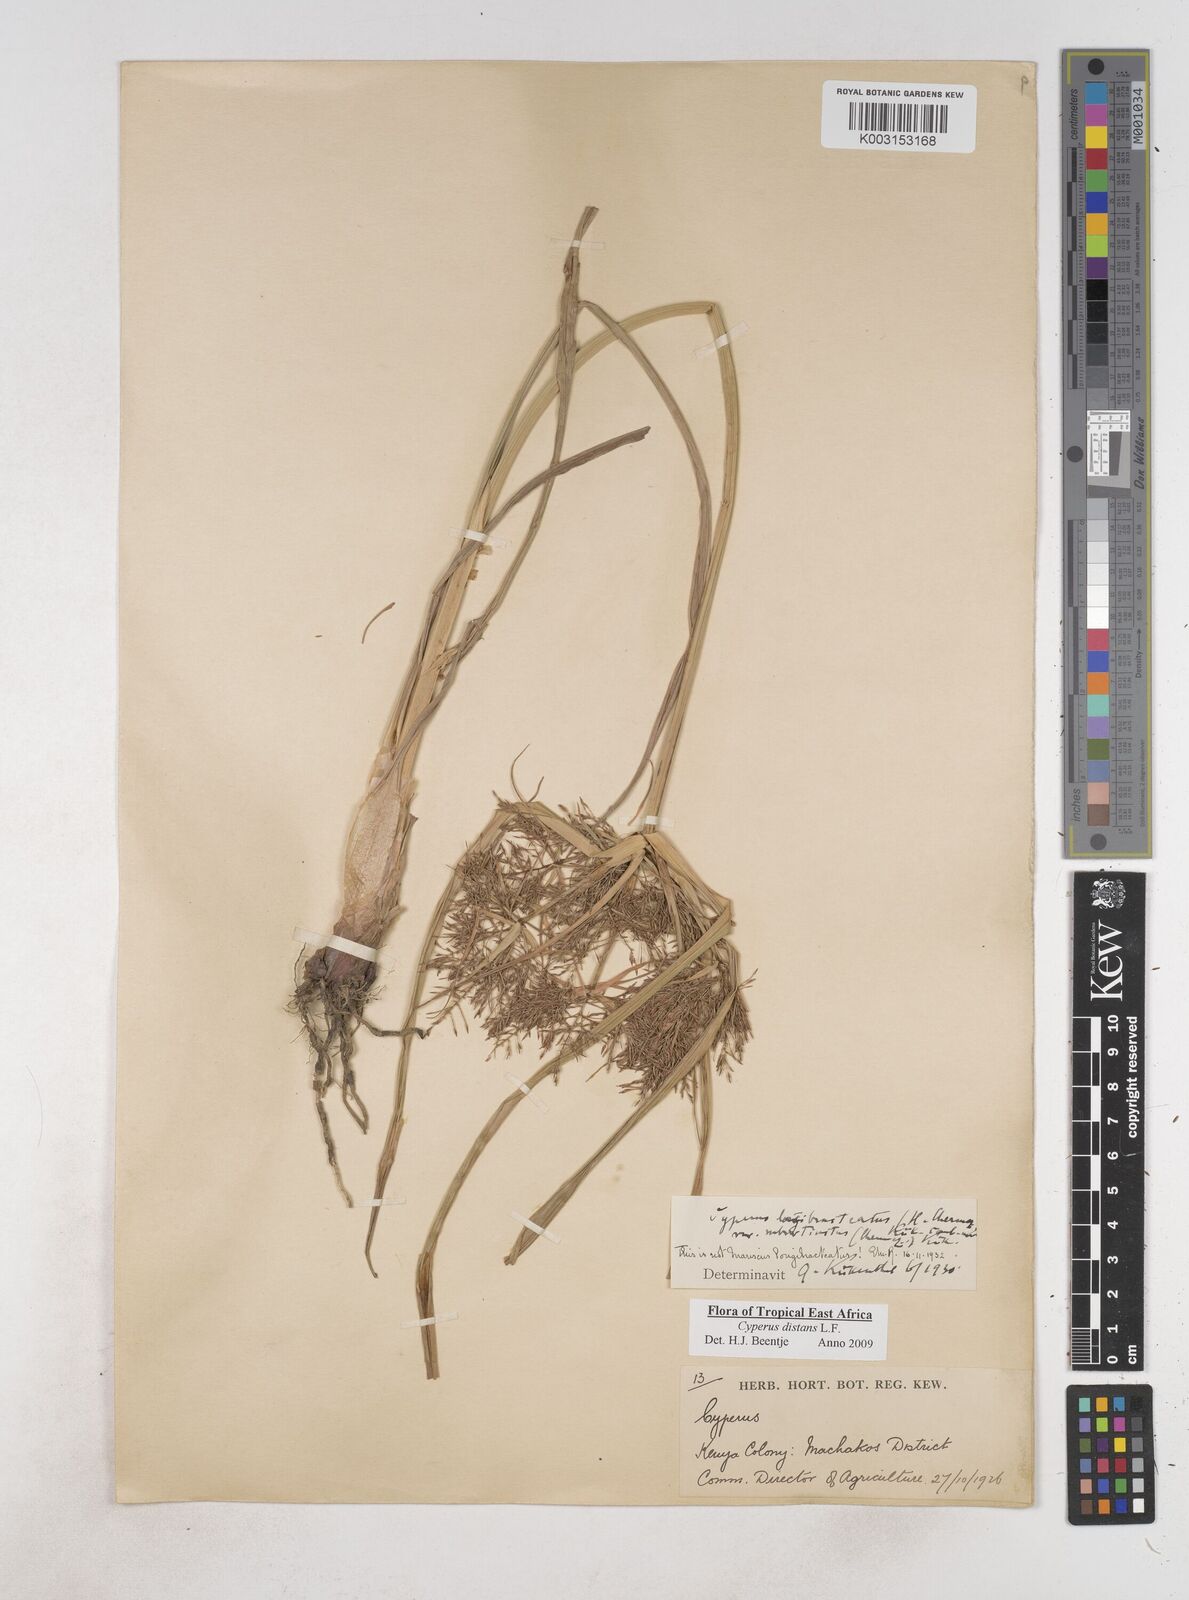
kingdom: Plantae
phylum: Tracheophyta
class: Liliopsida
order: Poales
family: Cyperaceae
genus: Cyperus
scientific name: Cyperus distans
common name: Slender cyperus
